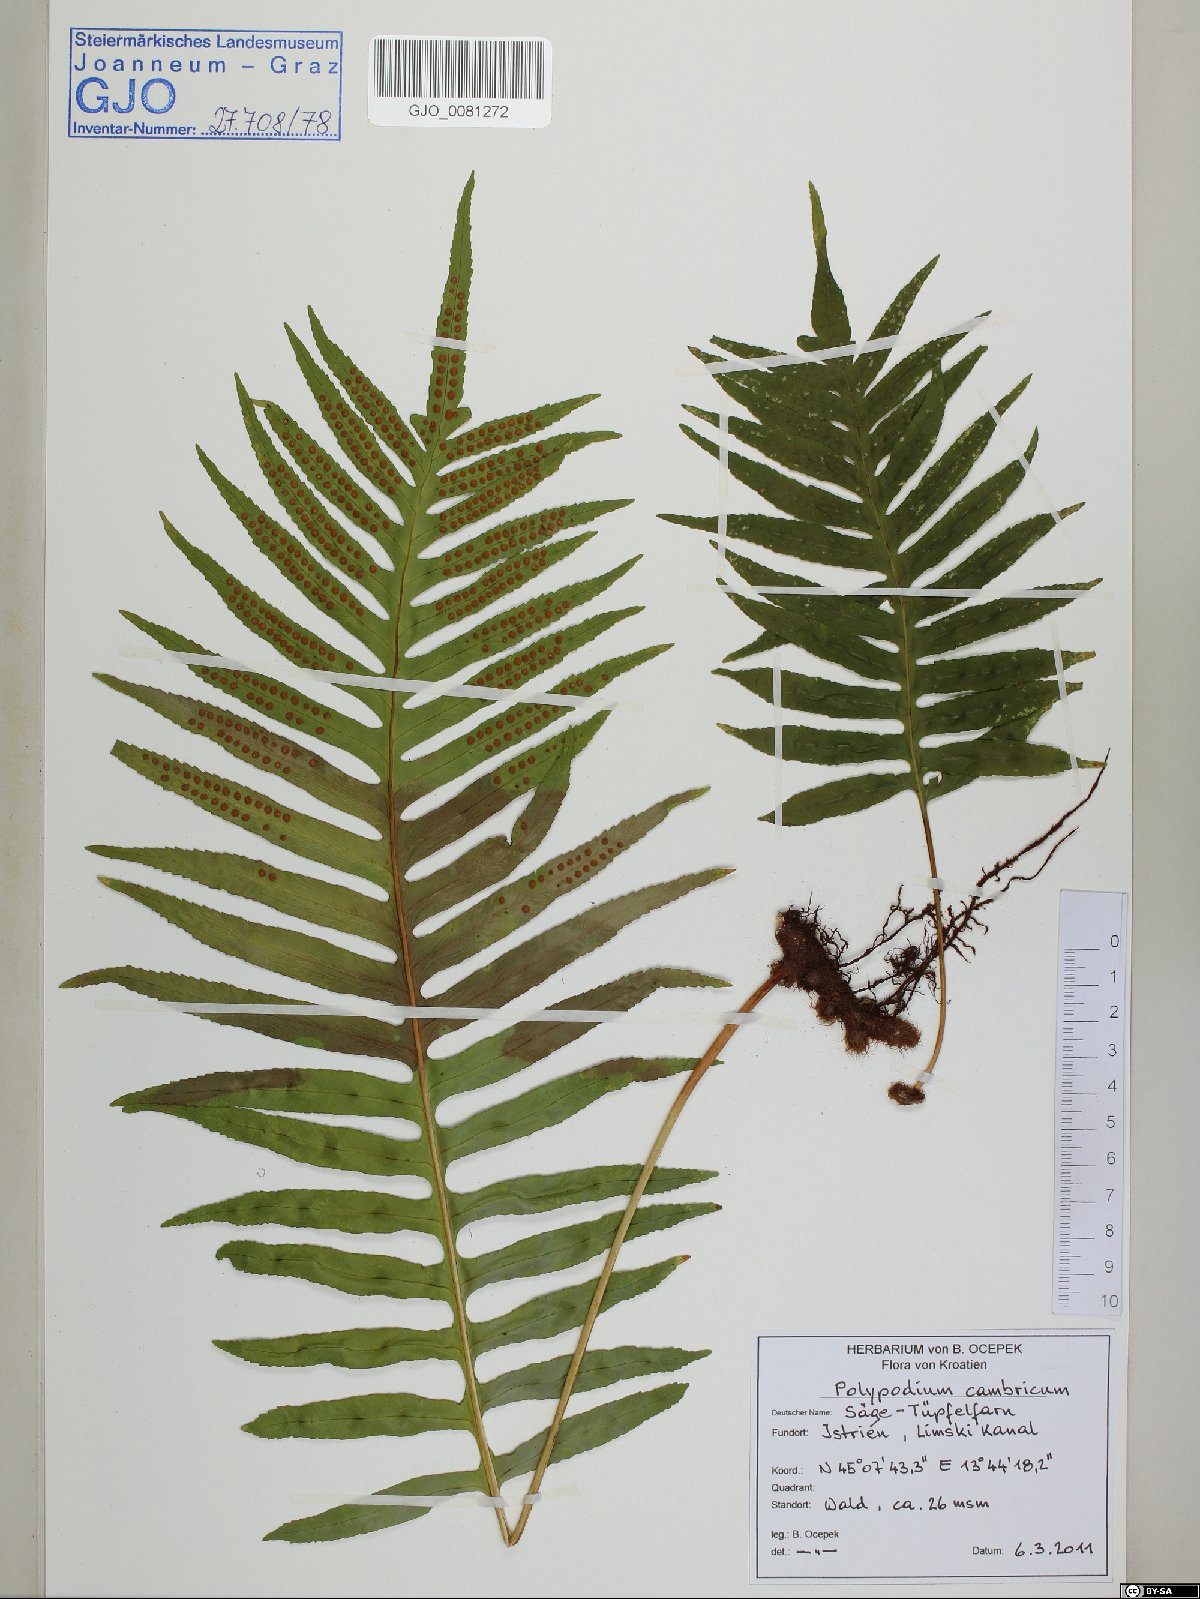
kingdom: Plantae
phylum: Tracheophyta
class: Polypodiopsida
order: Polypodiales
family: Polypodiaceae
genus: Polypodium
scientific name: Polypodium cambricum
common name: Southern polypody
